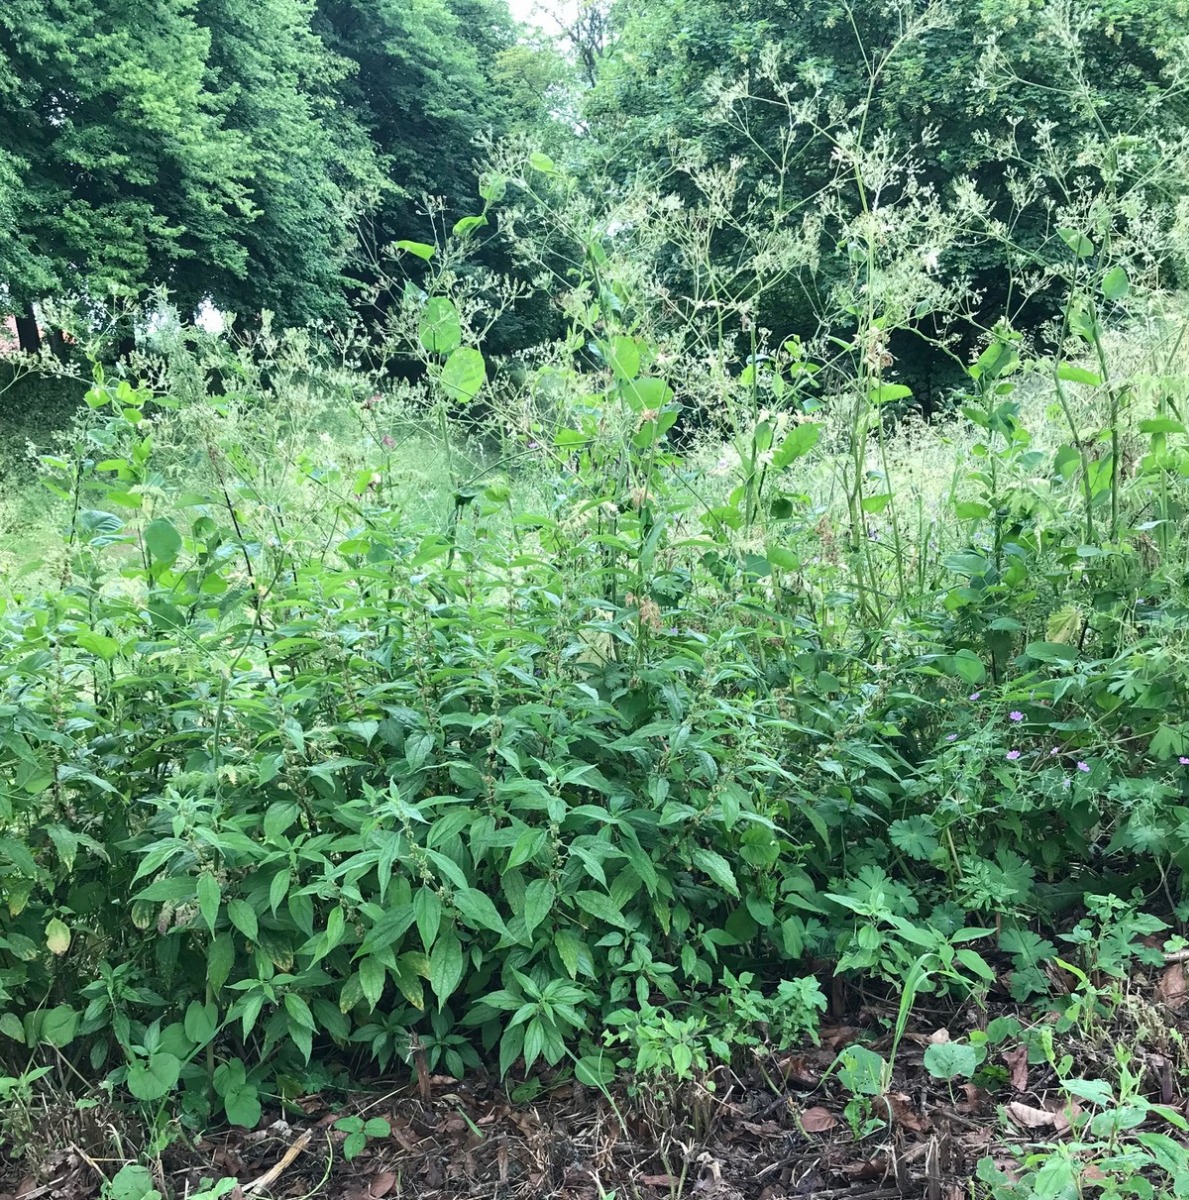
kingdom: Plantae
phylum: Tracheophyta
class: Magnoliopsida
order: Rosales
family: Urticaceae
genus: Parietaria
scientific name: Parietaria officinalis
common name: Almindelig springknap
